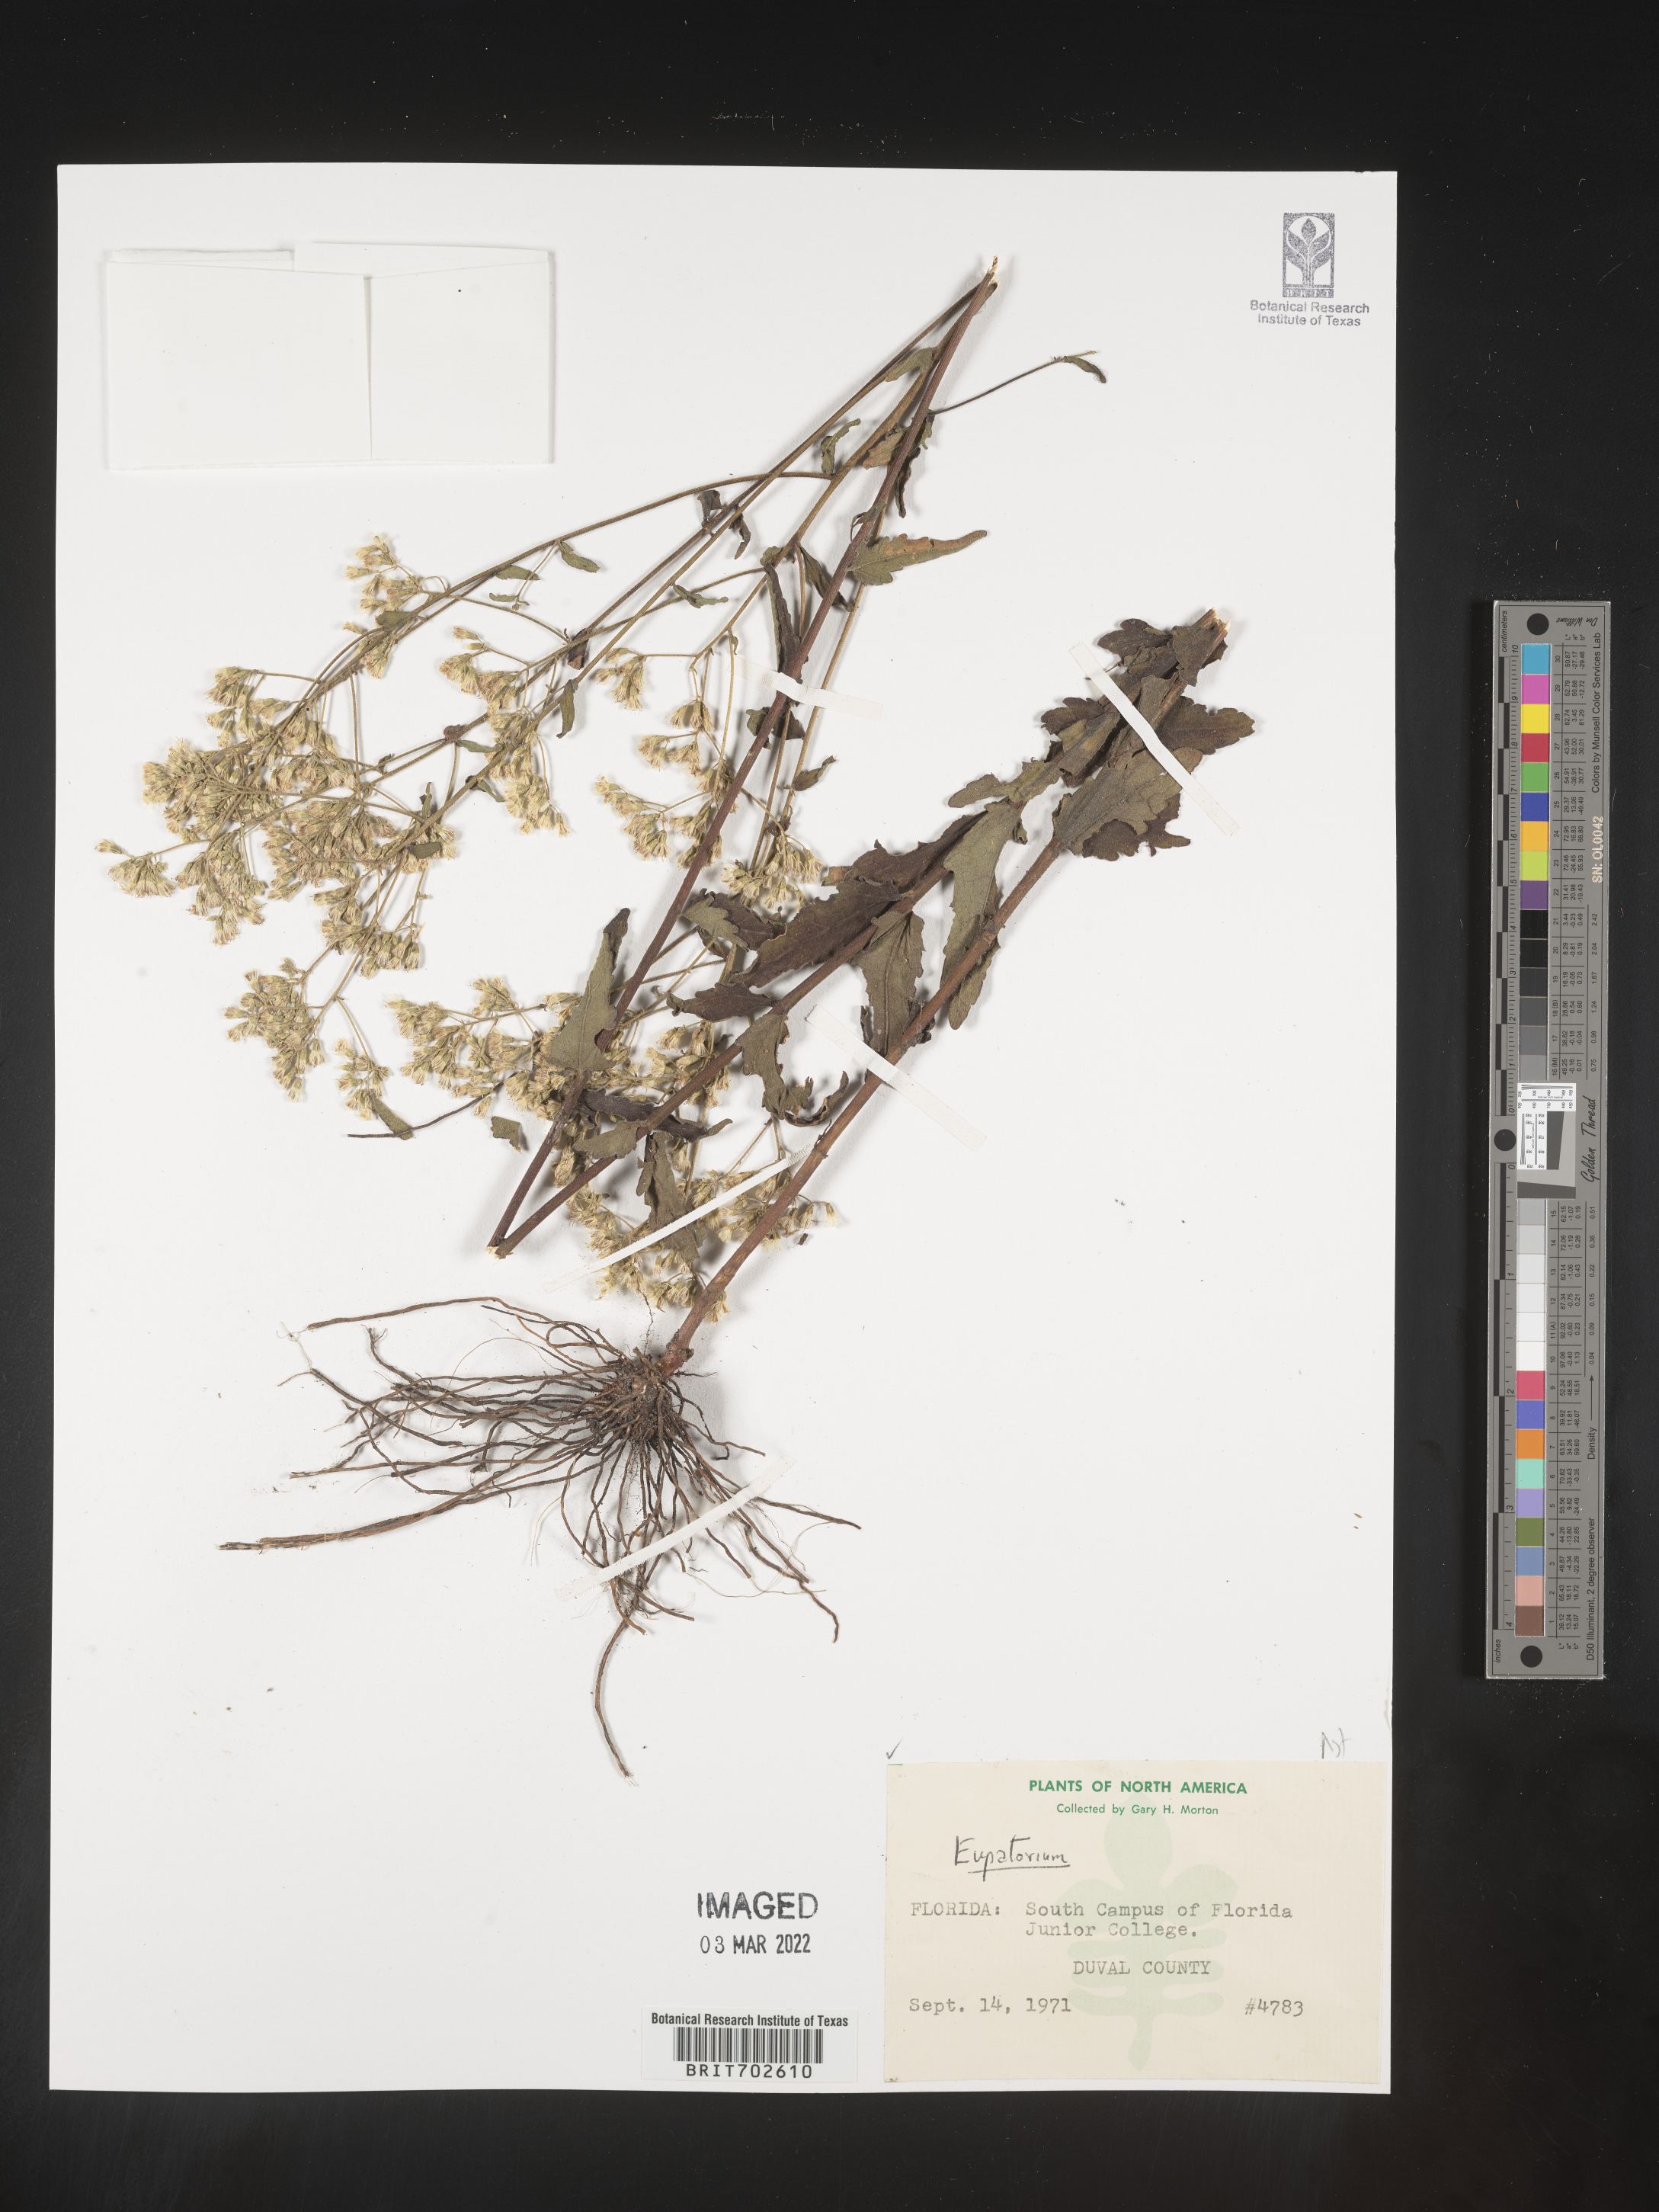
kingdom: Plantae
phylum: Tracheophyta
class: Magnoliopsida
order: Asterales
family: Asteraceae
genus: Eupatorium
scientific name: Eupatorium
